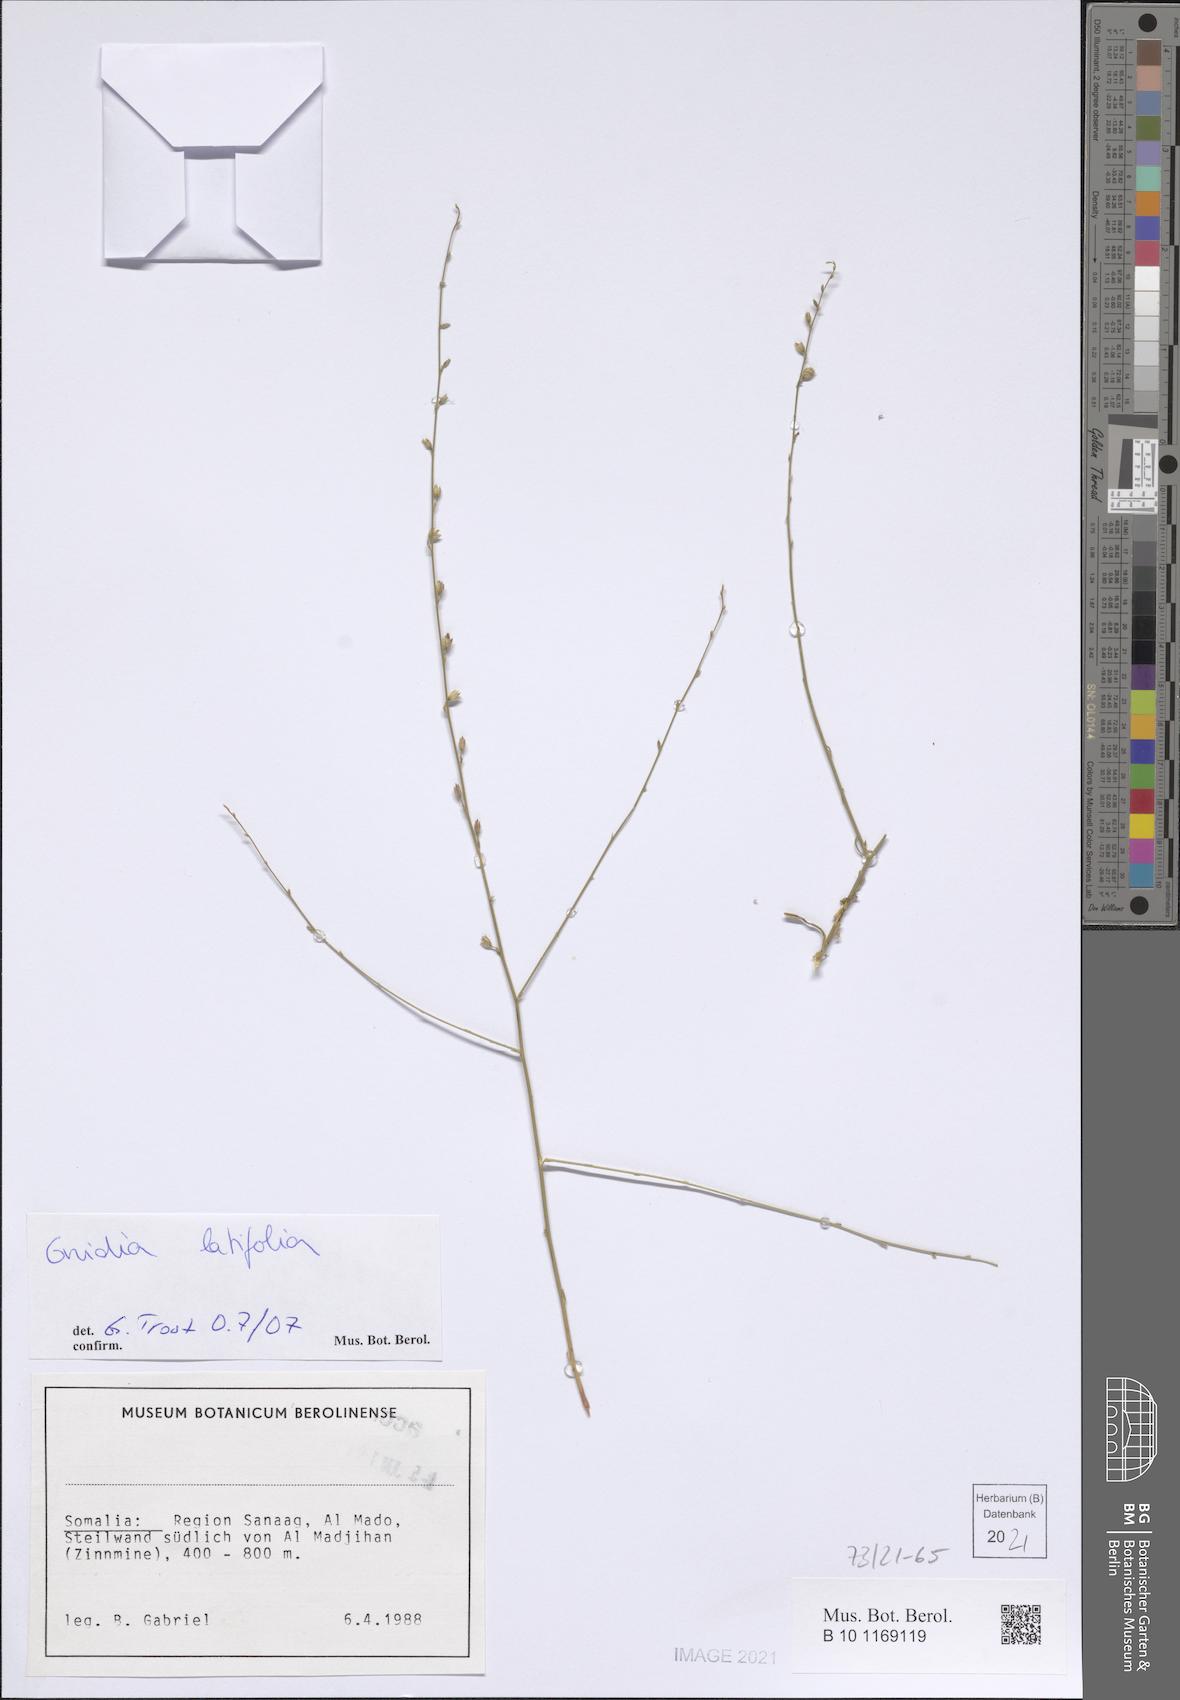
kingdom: Plantae
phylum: Tracheophyta
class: Magnoliopsida
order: Solanales
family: Convolvulaceae
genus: Convolvulus
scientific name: Convolvulus sericophyllus
